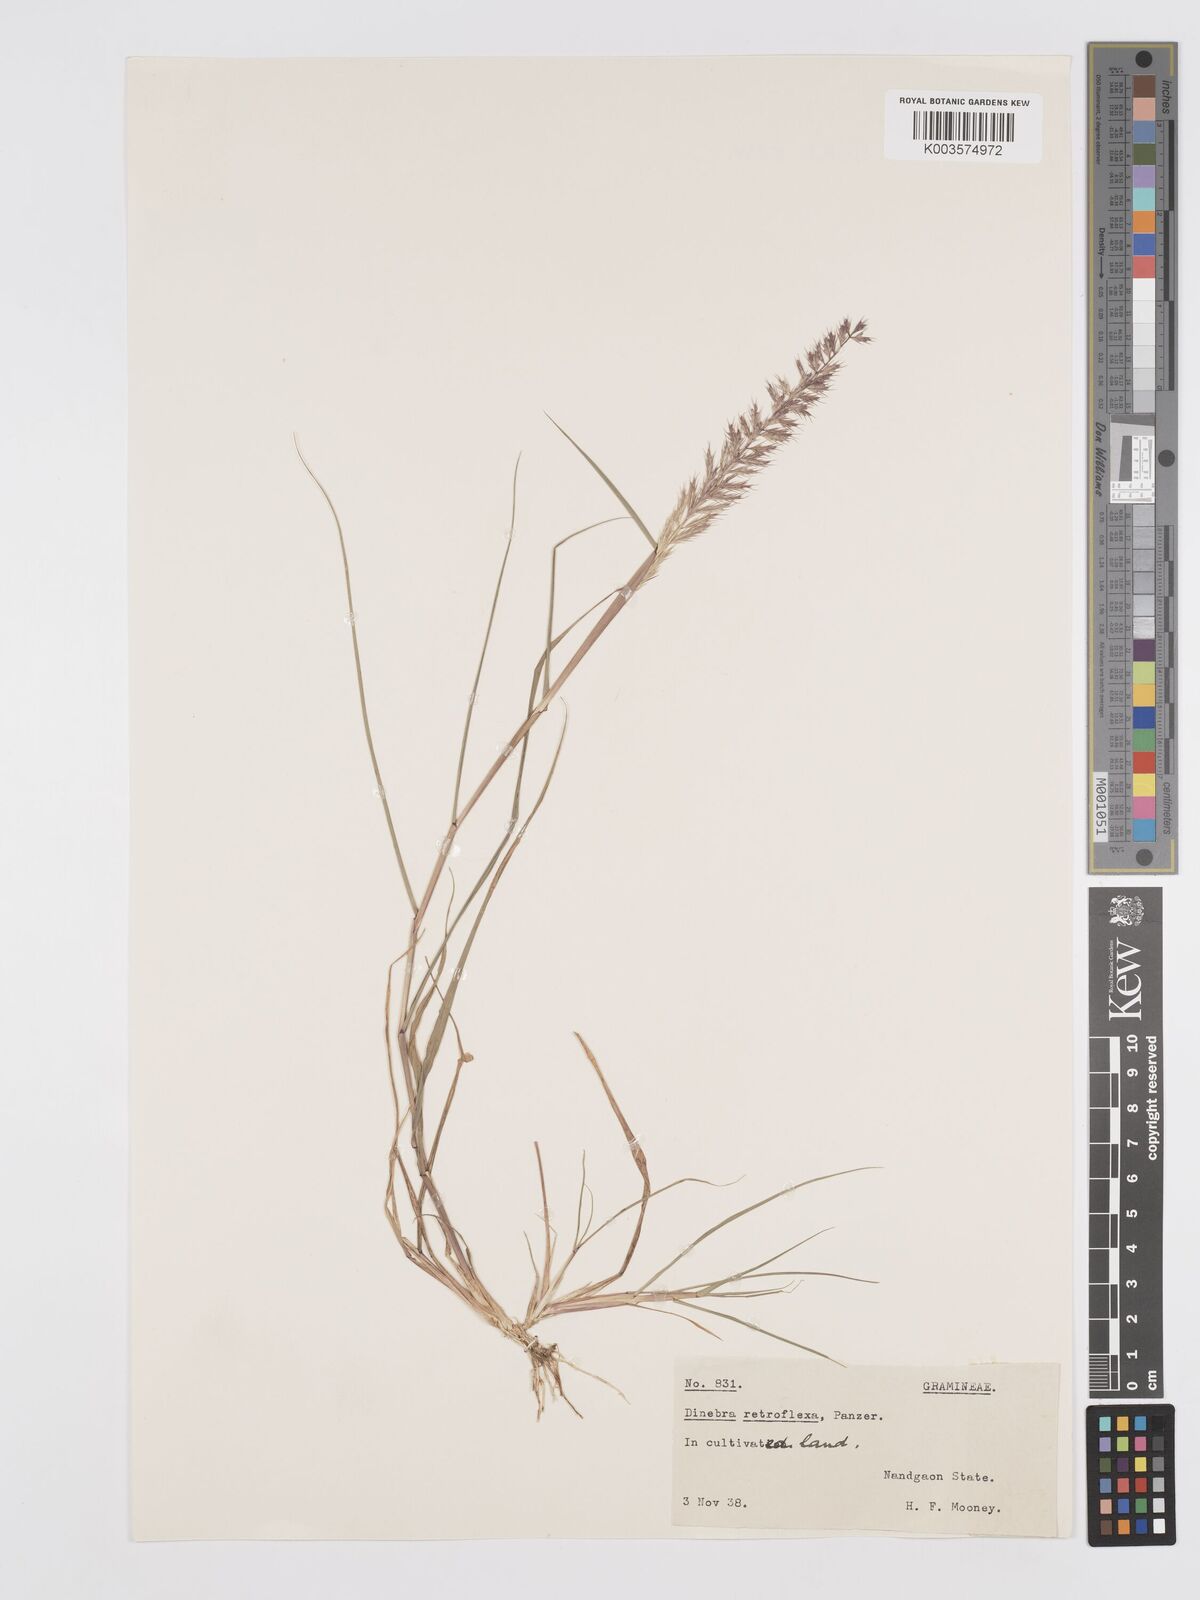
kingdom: Plantae
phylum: Tracheophyta
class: Liliopsida
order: Poales
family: Poaceae
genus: Dinebra
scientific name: Dinebra retroflexa
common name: Viper grass
